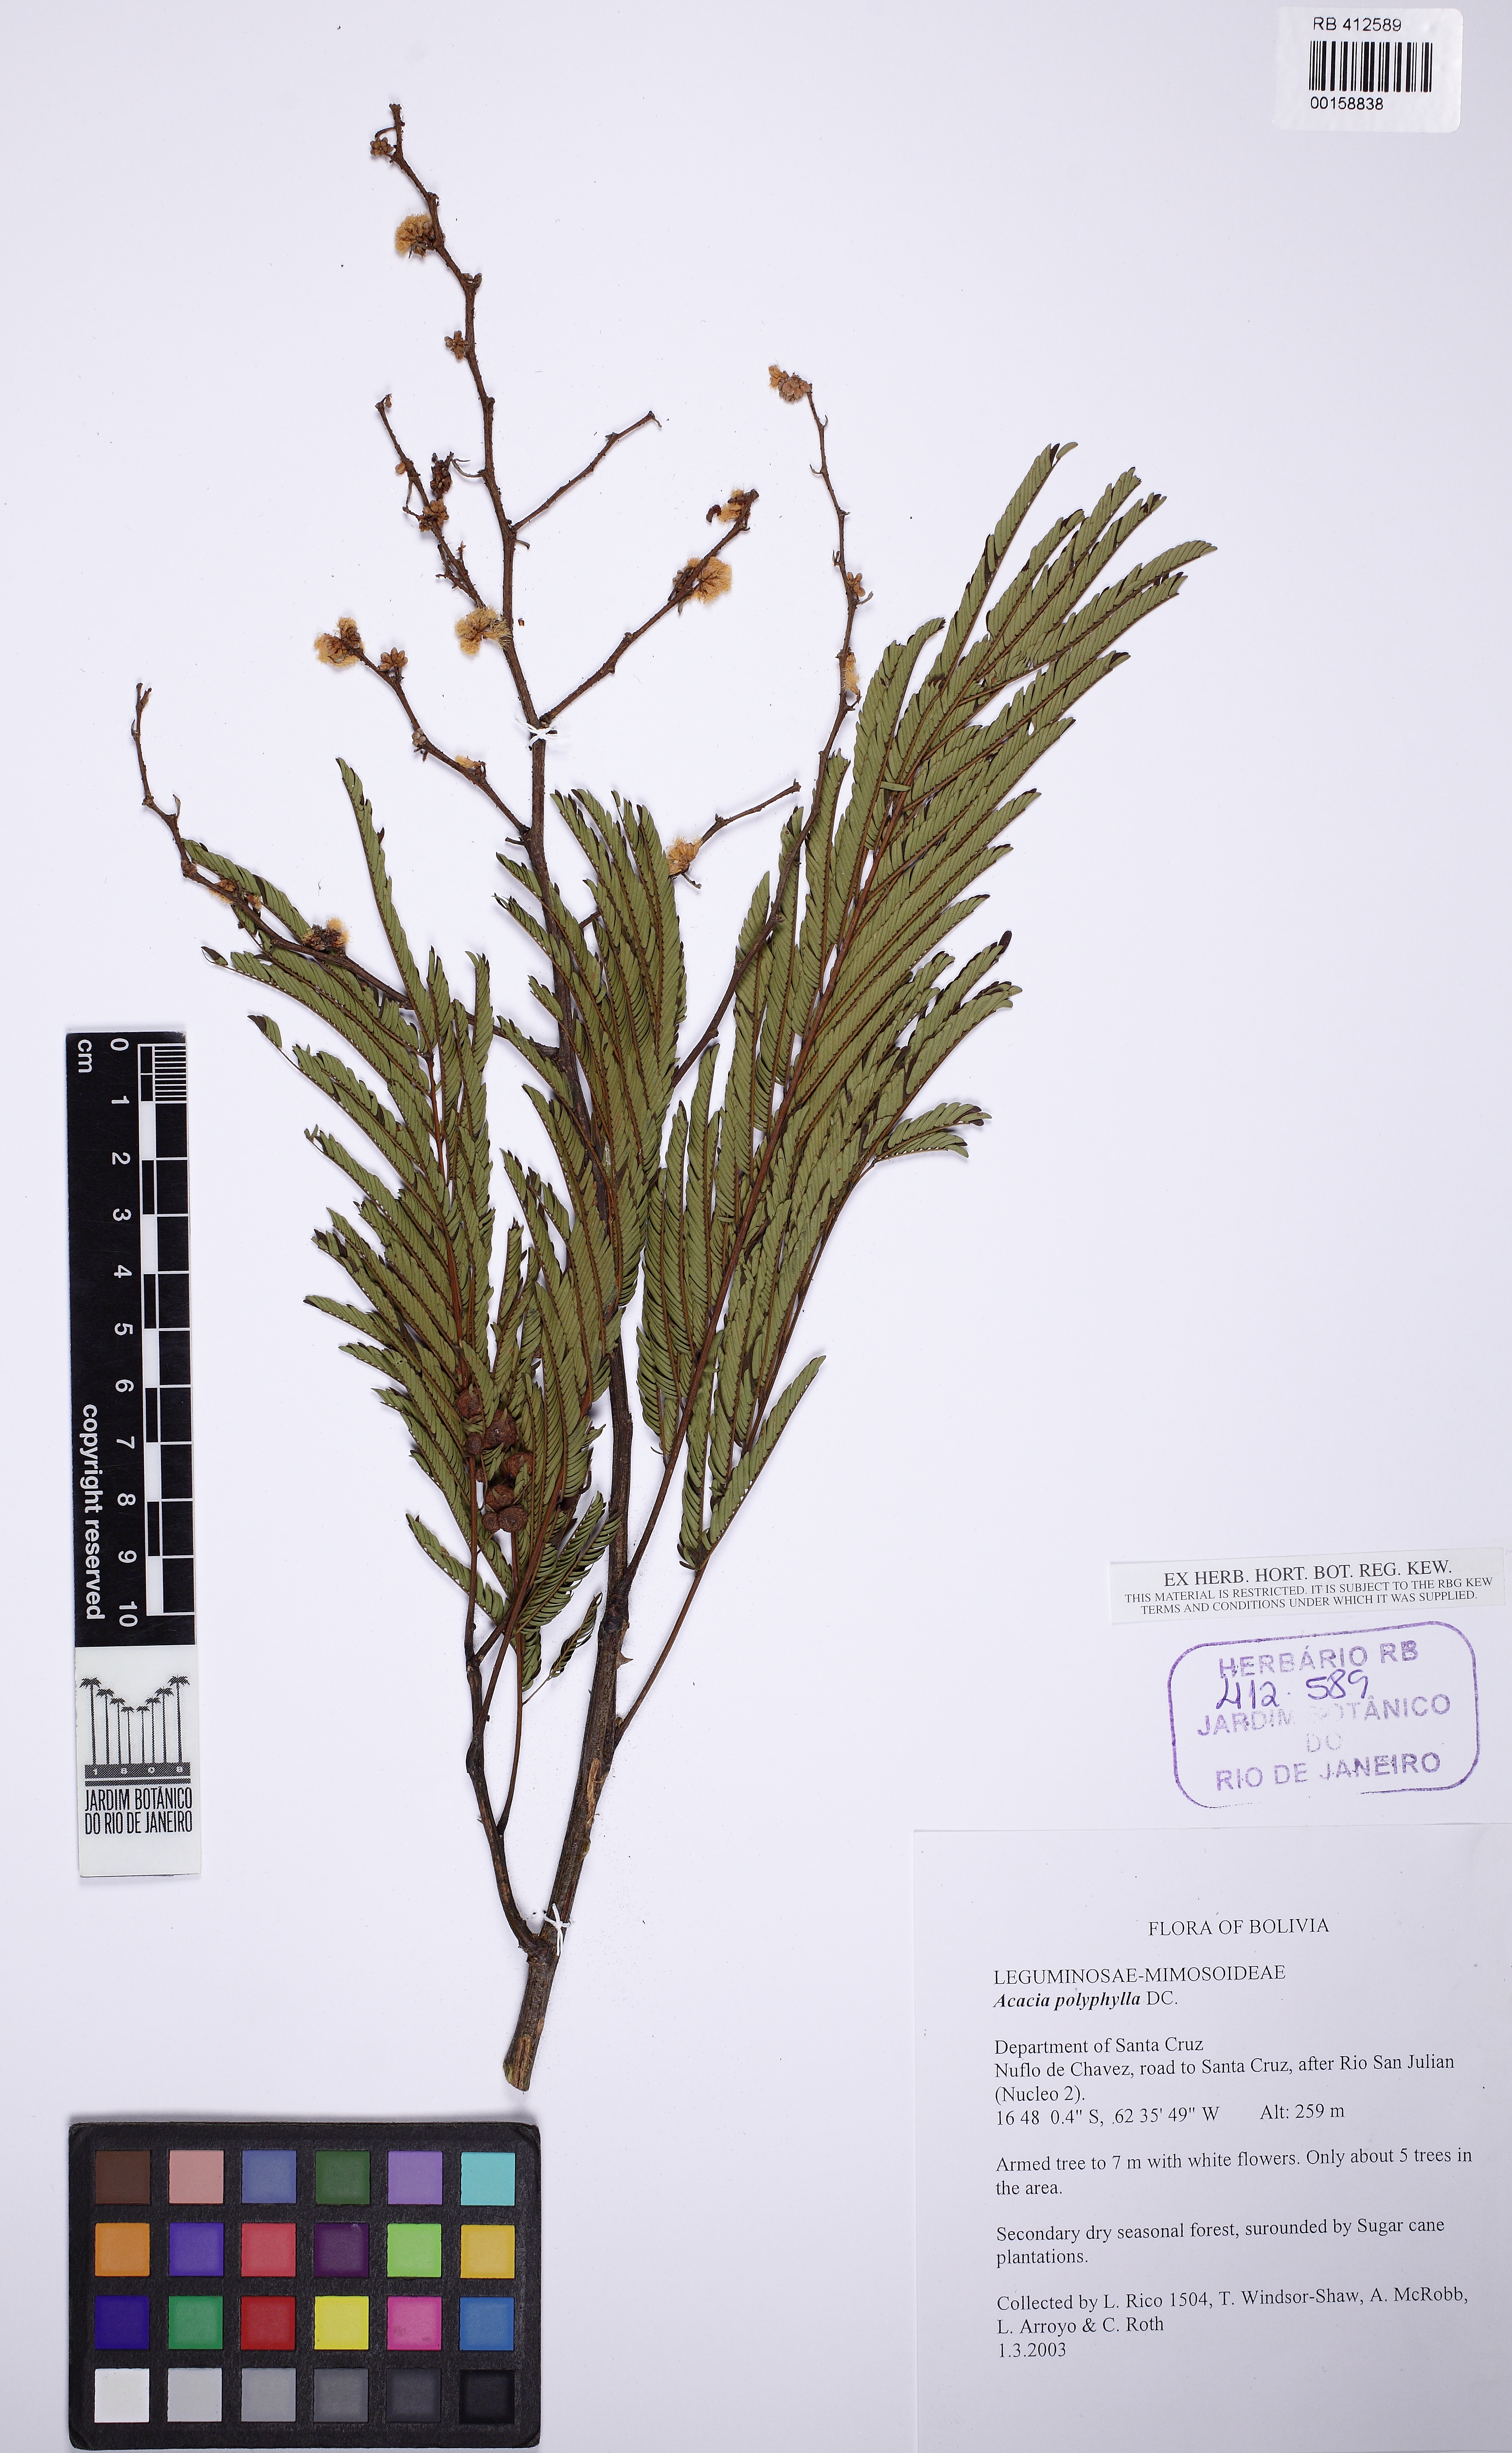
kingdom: Plantae
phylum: Tracheophyta
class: Magnoliopsida
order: Fabales
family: Fabaceae
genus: Senegalia
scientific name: Senegalia polyphylla
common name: White-tamarind
